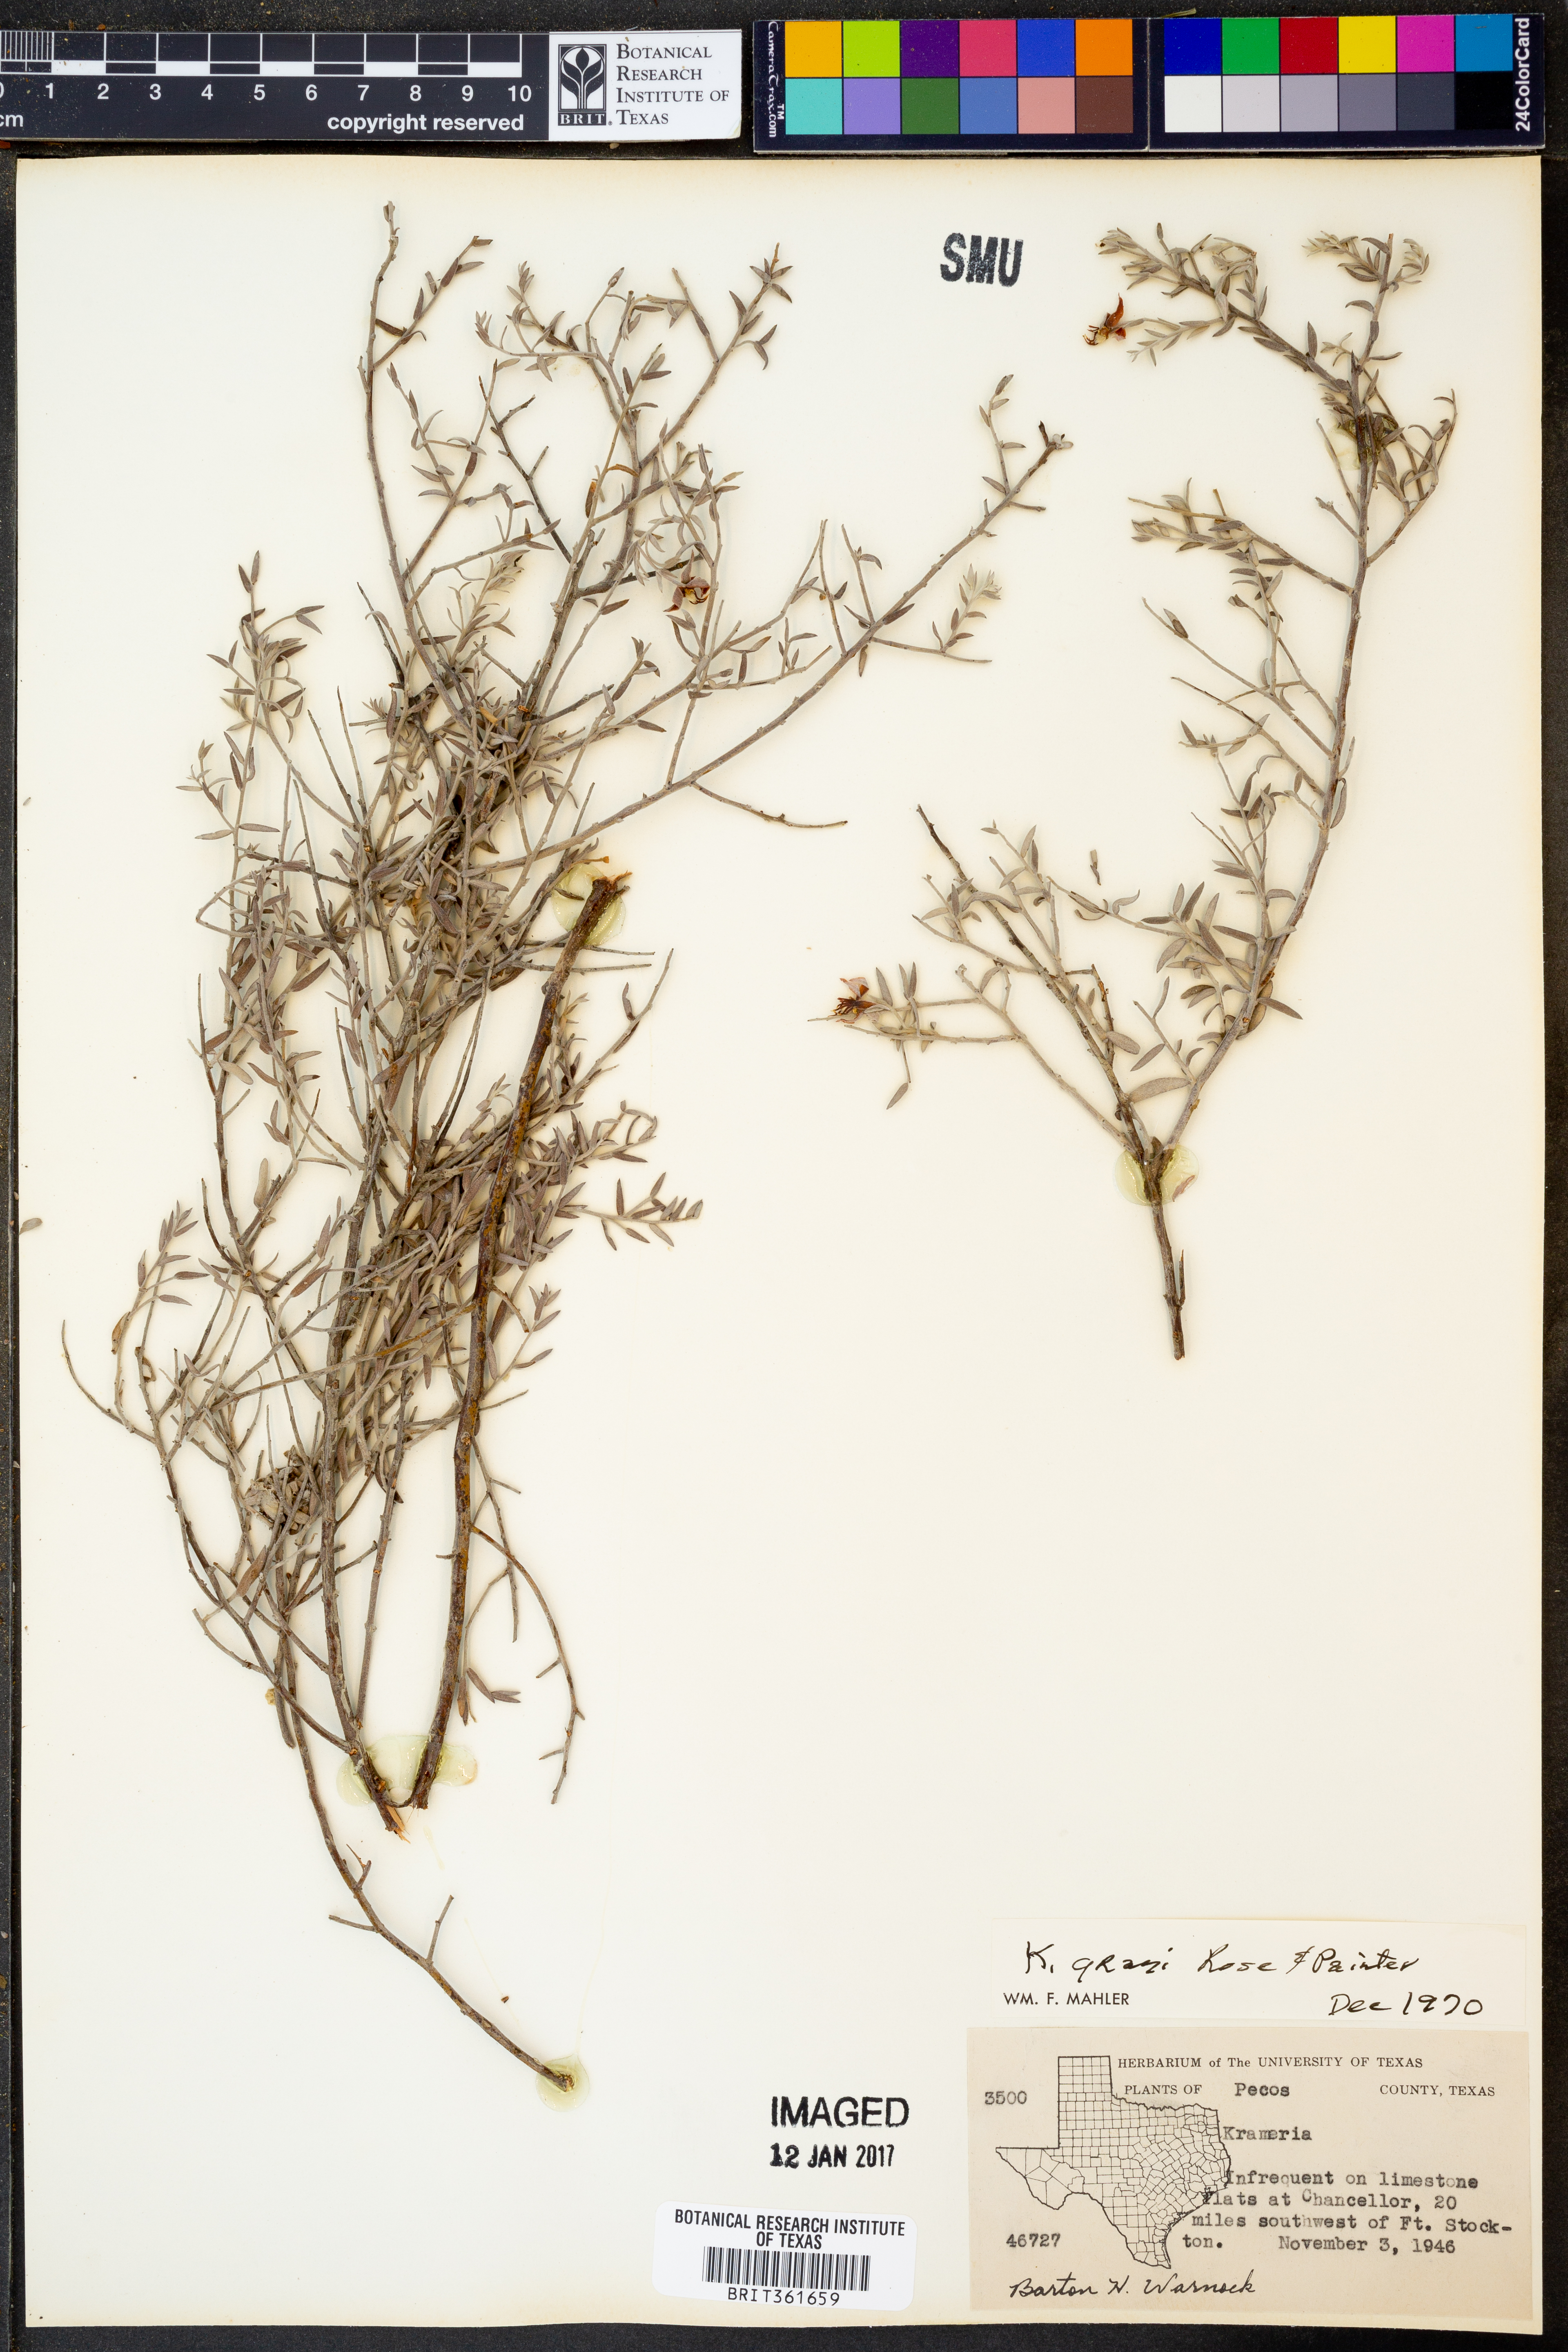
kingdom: Plantae
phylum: Tracheophyta
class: Magnoliopsida
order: Zygophyllales
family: Krameriaceae
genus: Krameria
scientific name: Krameria bicolor
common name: White ratany
